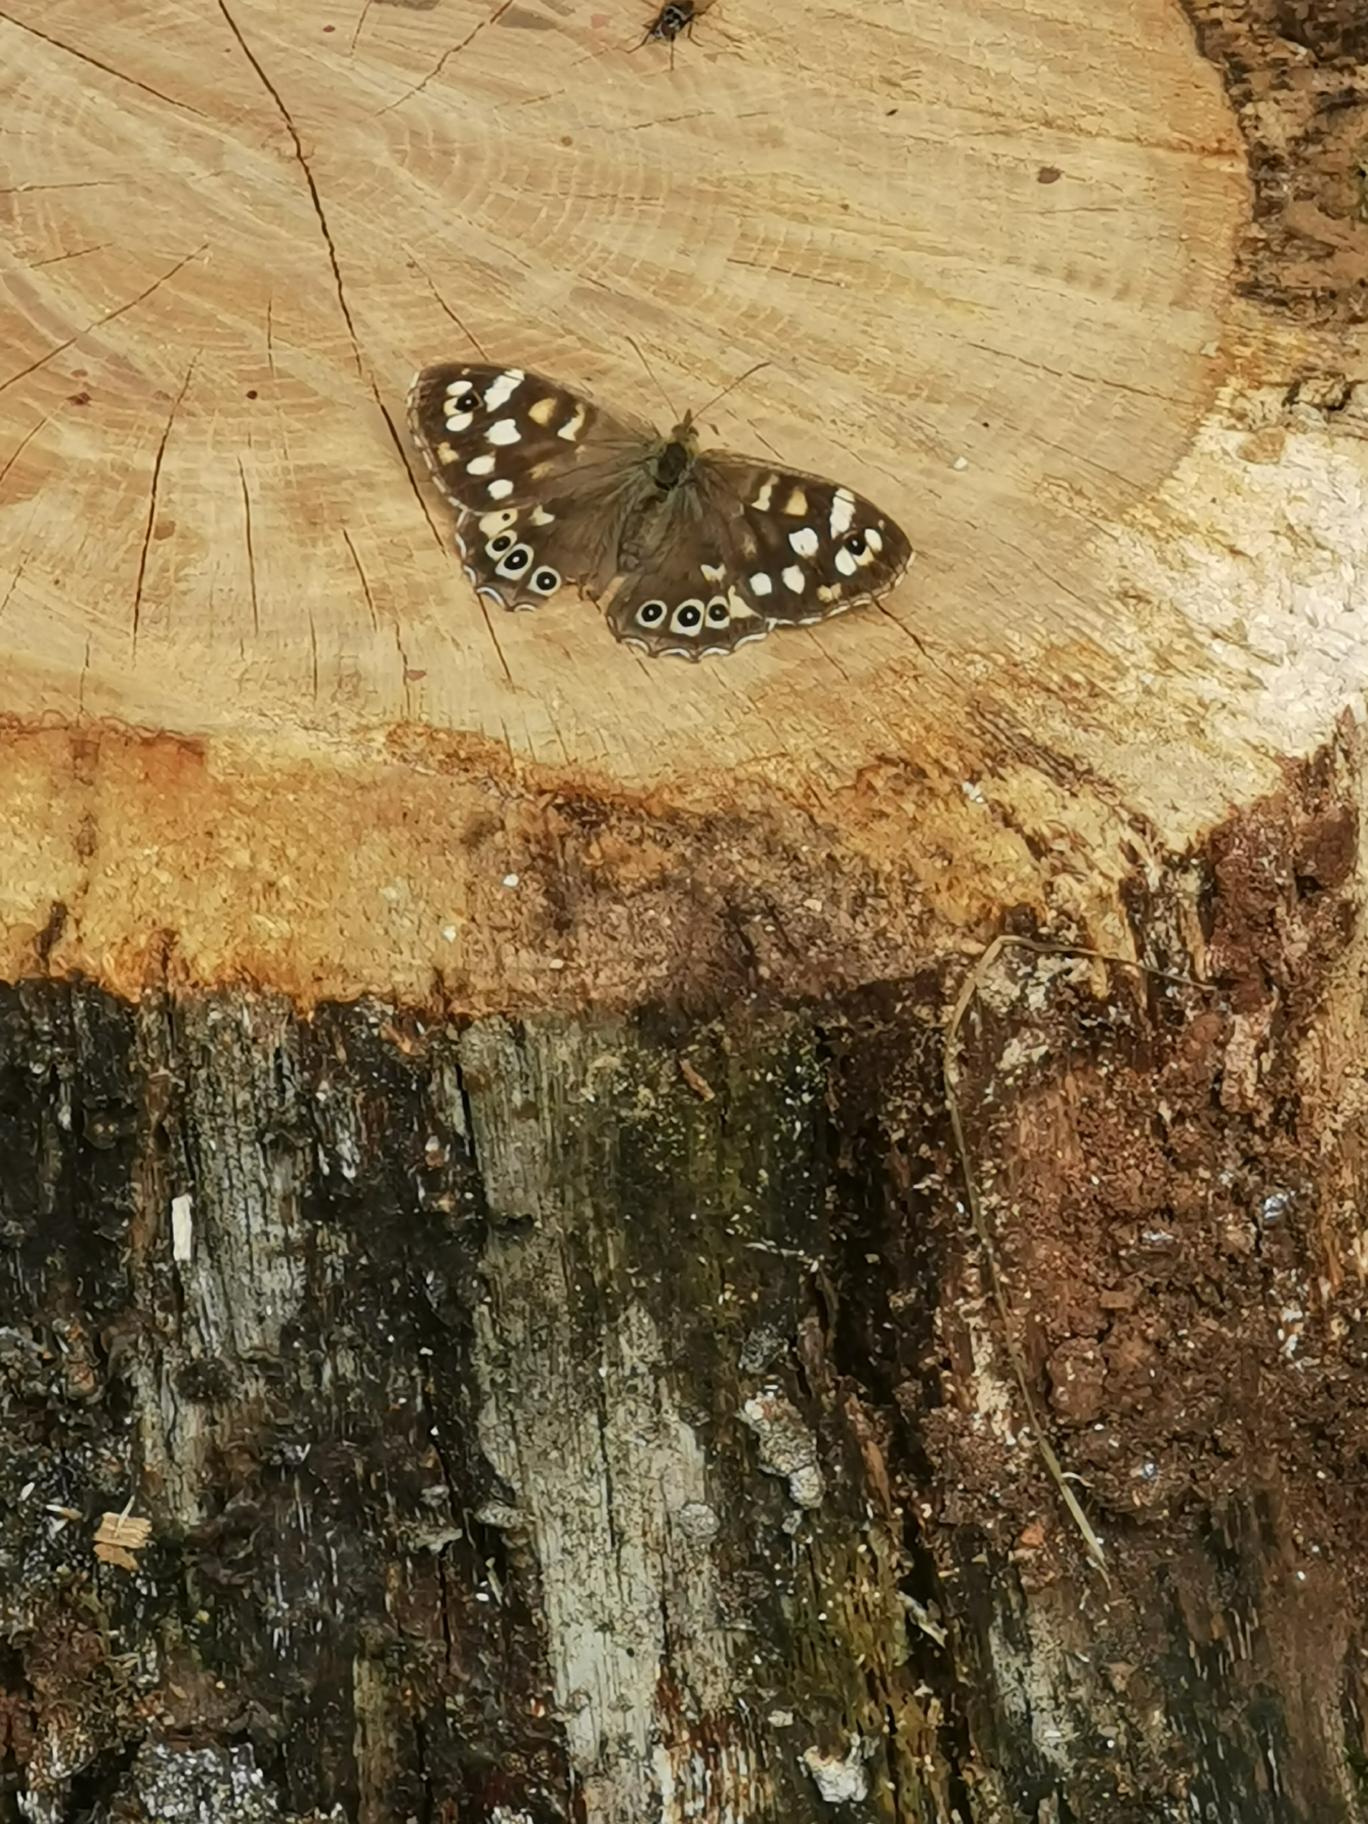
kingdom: Animalia
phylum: Arthropoda
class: Insecta
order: Lepidoptera
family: Nymphalidae
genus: Pararge
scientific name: Pararge aegeria
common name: Skovrandøje
